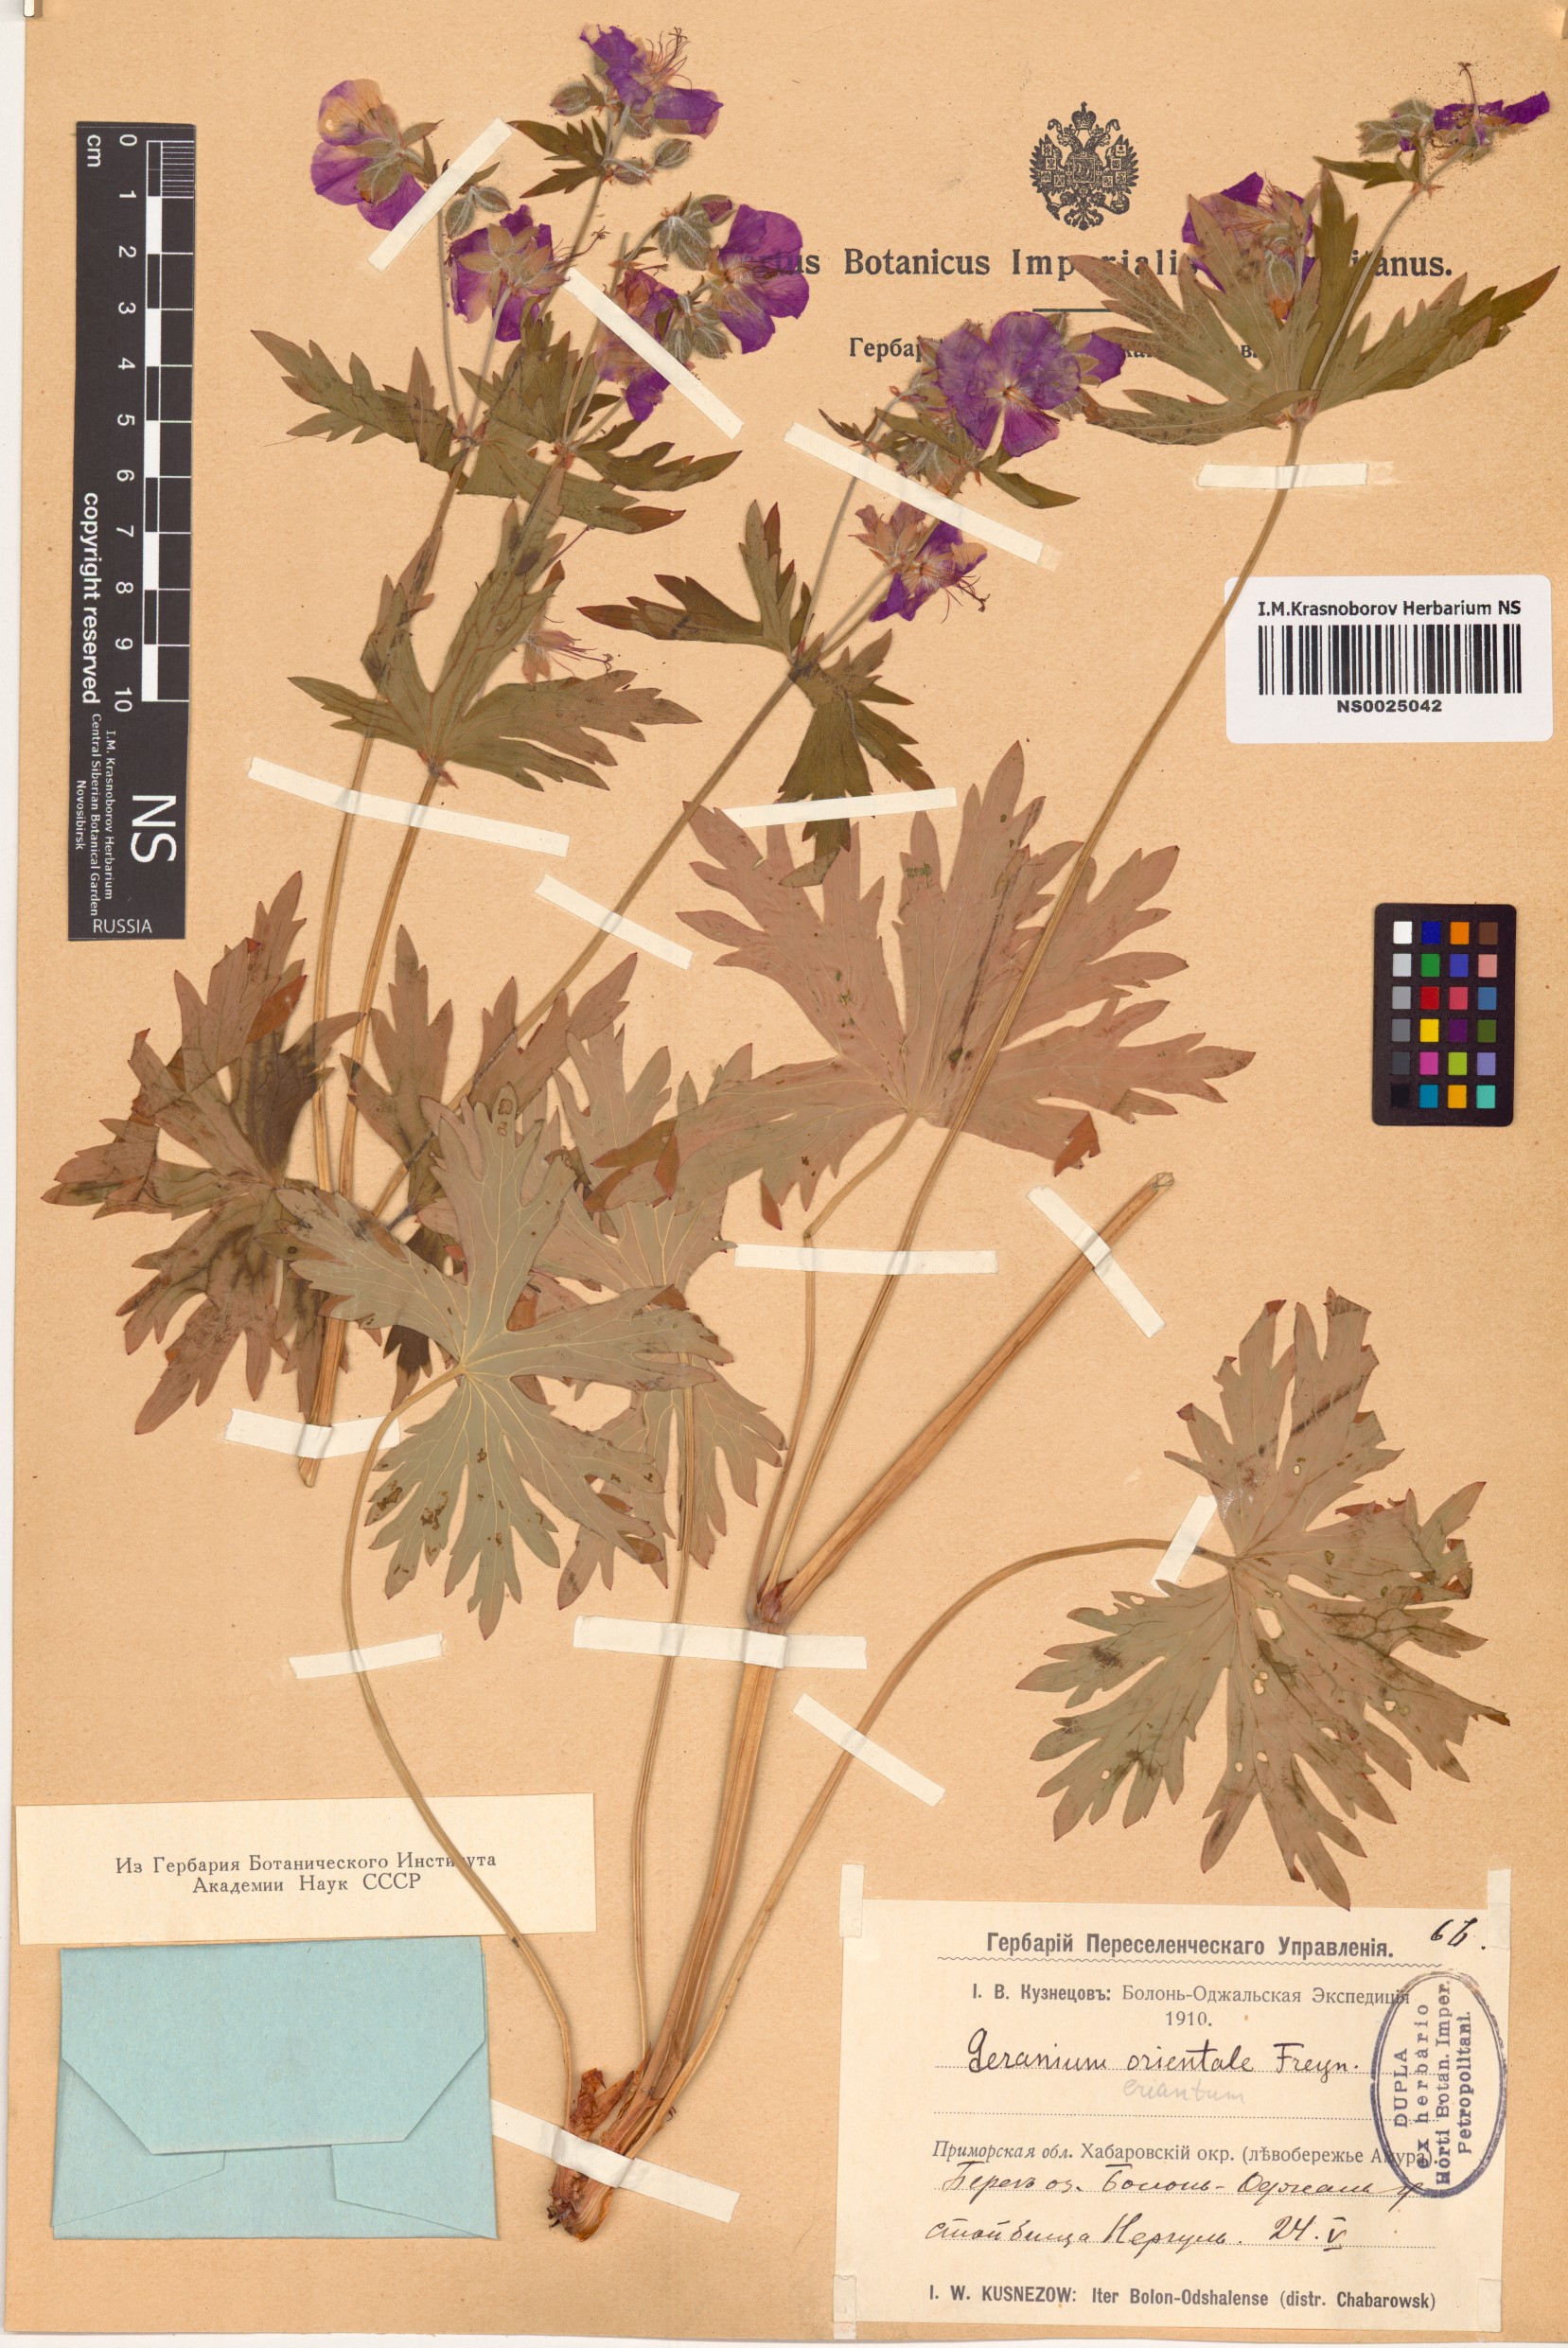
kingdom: Plantae
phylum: Tracheophyta
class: Magnoliopsida
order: Geraniales
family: Geraniaceae
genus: Geranium
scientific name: Geranium erianthum
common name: Northern crane's-bill
